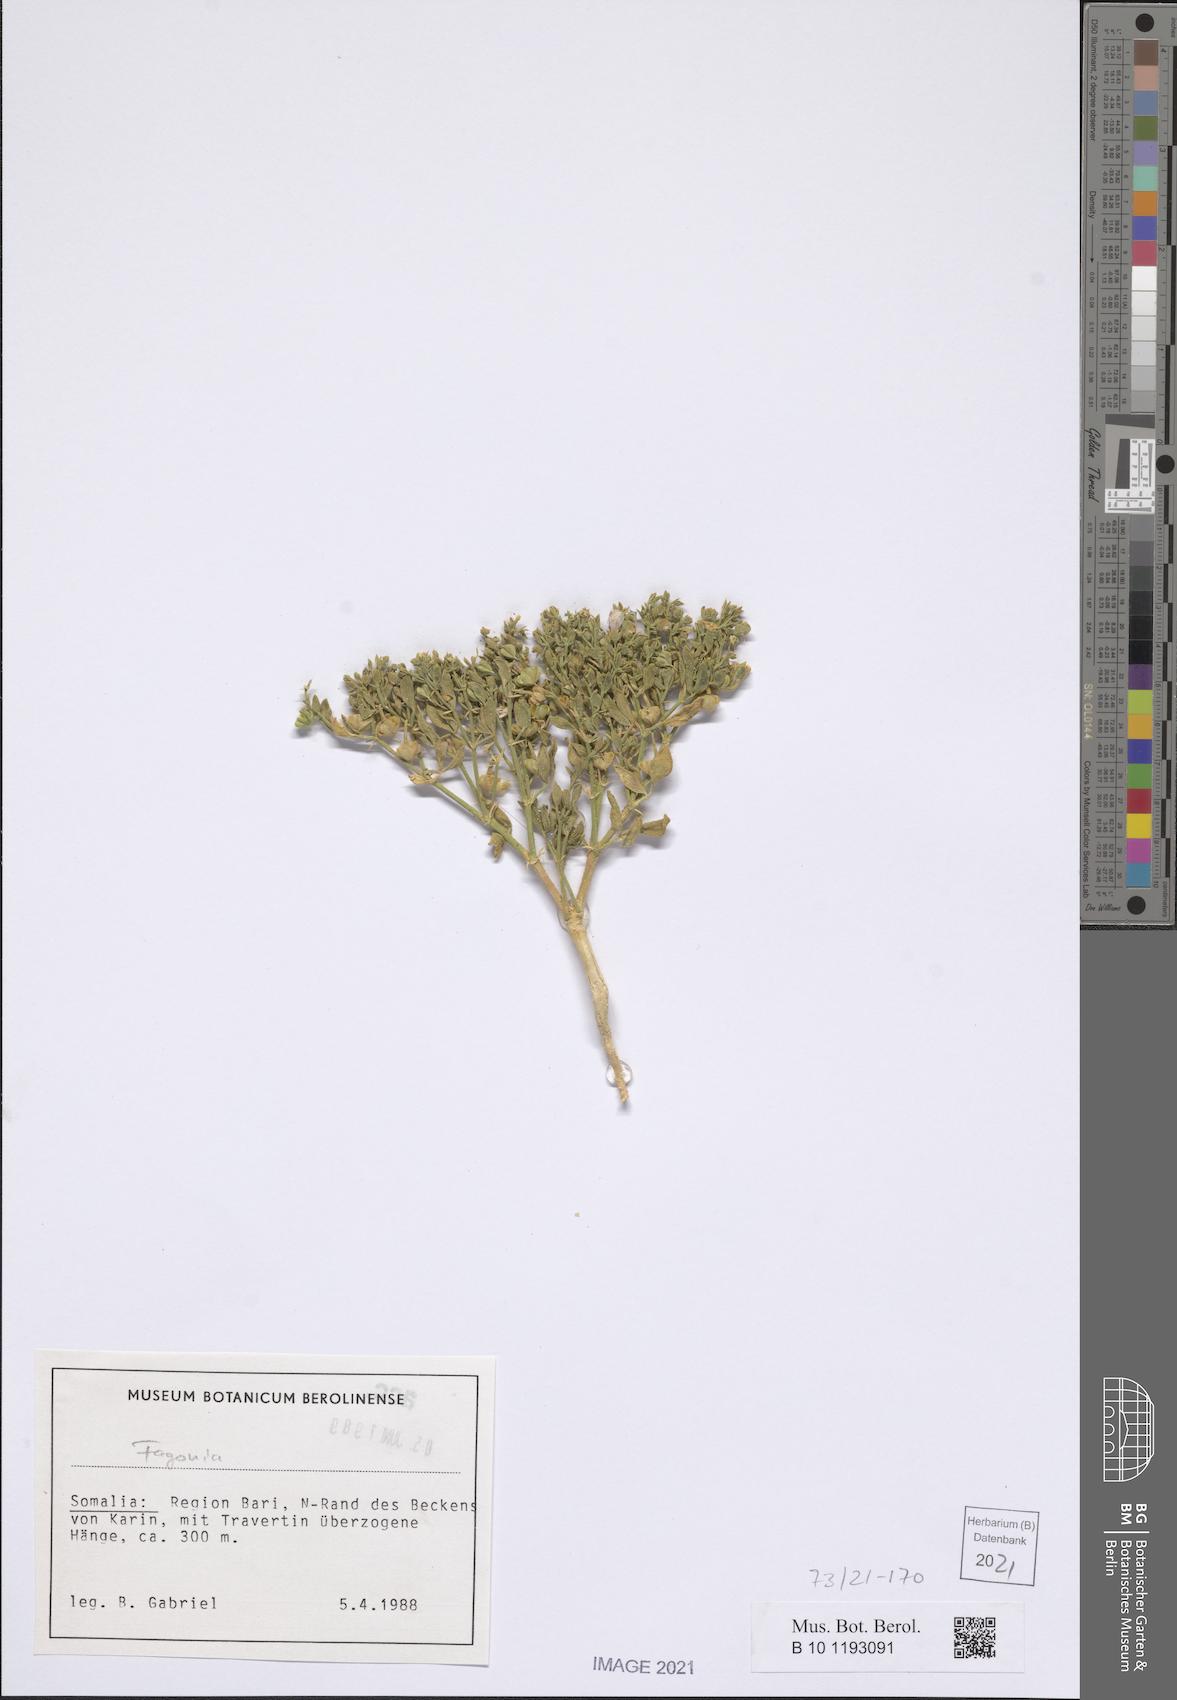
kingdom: Plantae
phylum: Tracheophyta
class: Magnoliopsida
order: Zygophyllales
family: Zygophyllaceae
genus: Fagonia
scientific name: Fagonia
